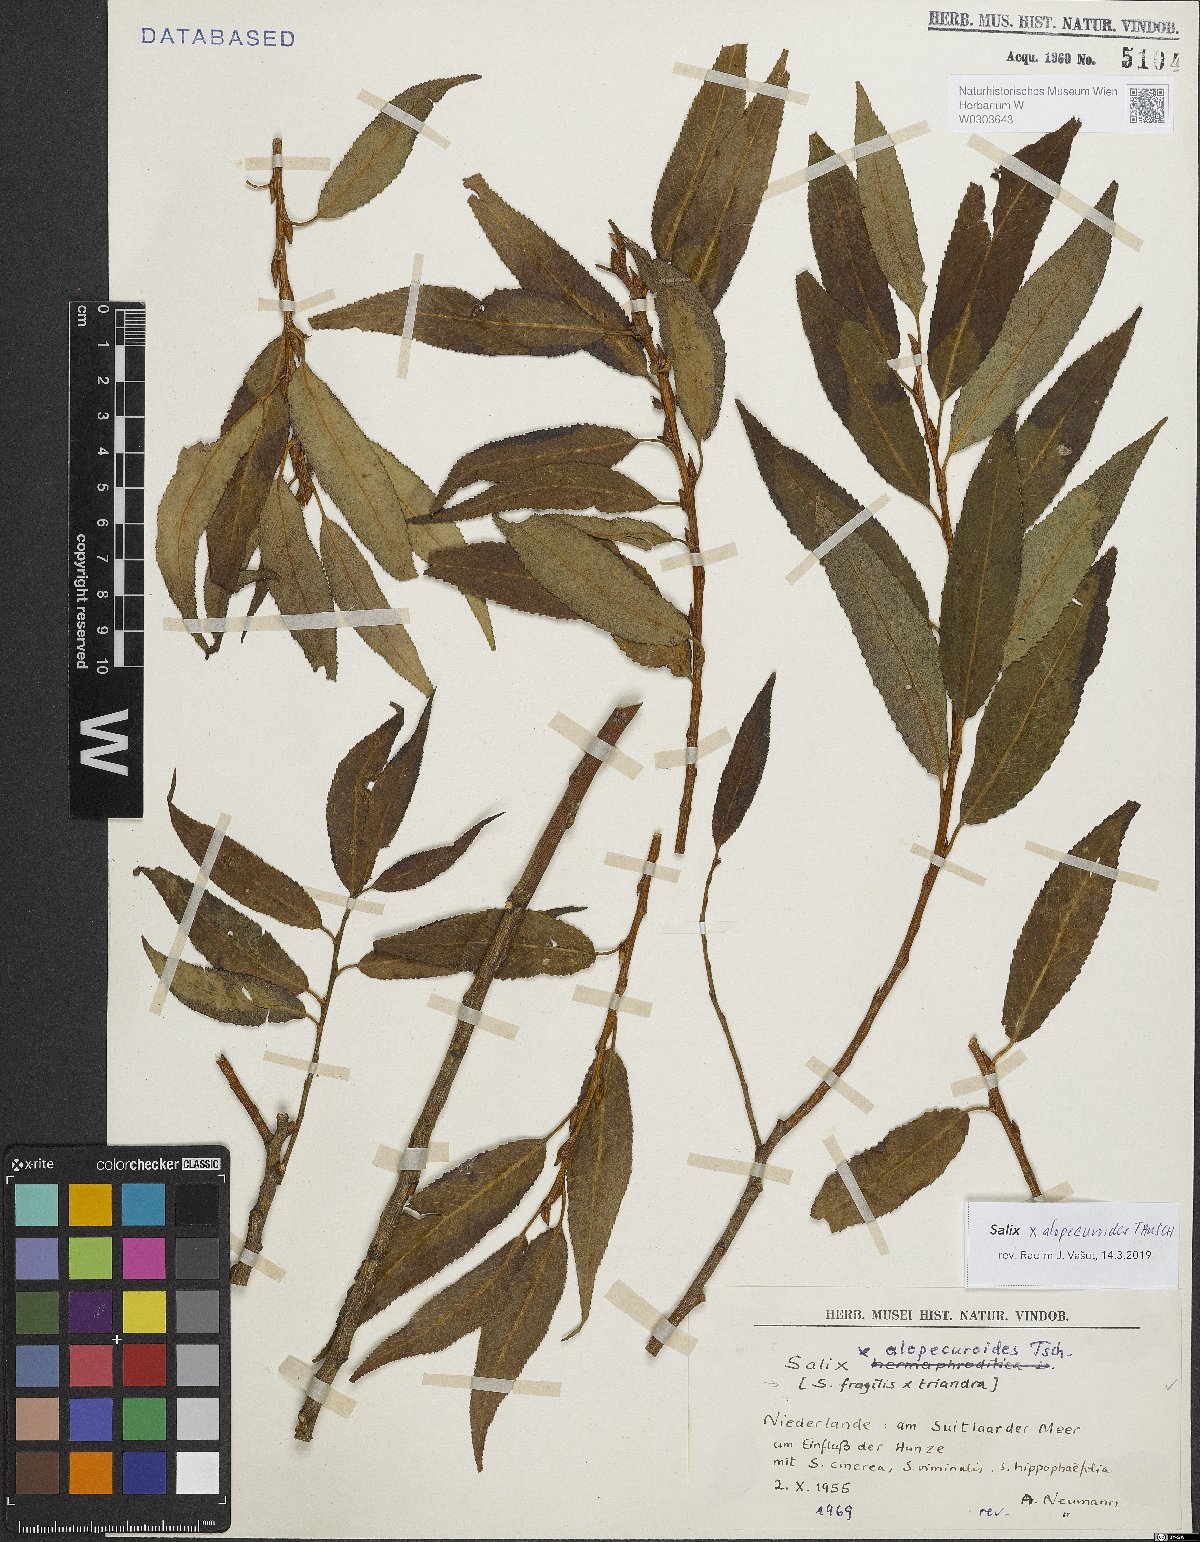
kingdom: Plantae
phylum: Tracheophyta
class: Magnoliopsida
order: Malpighiales
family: Salicaceae
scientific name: Salicaceae
